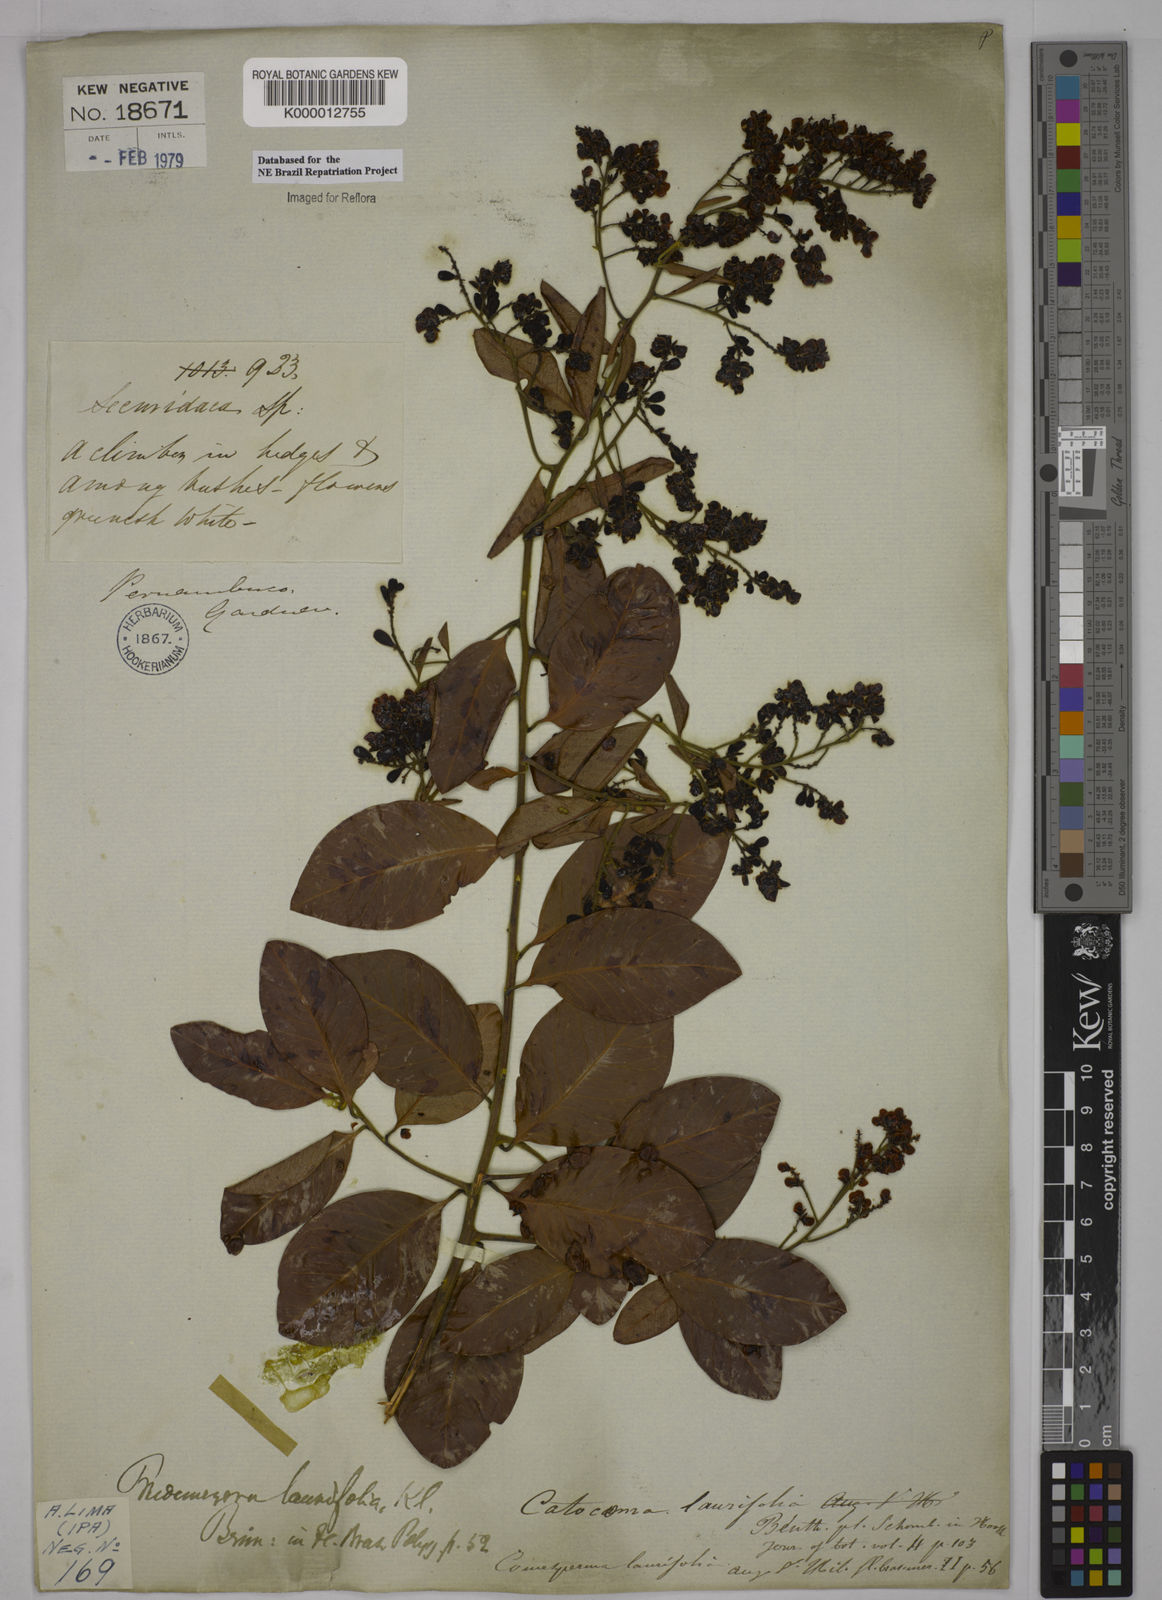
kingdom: Plantae
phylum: Tracheophyta
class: Magnoliopsida
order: Fabales
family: Polygalaceae
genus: Bredemeyera
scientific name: Bredemeyera laurifolia
